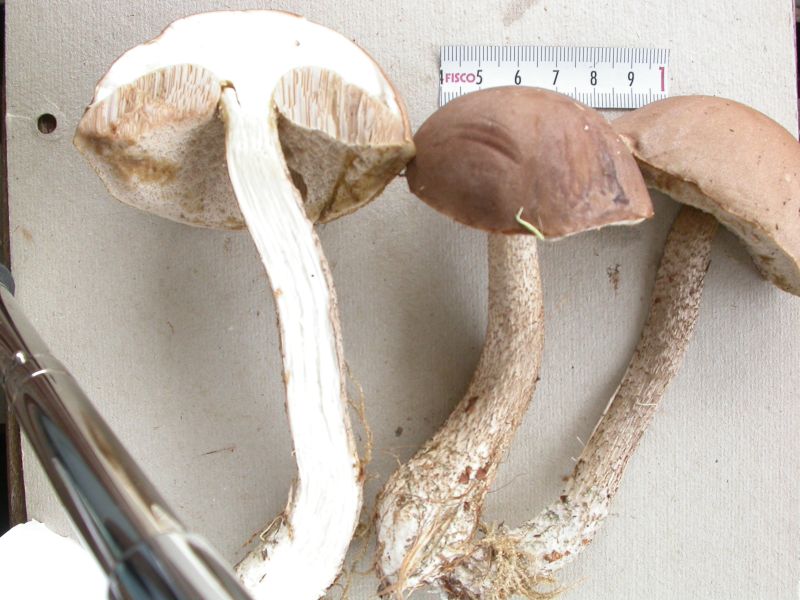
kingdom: Fungi
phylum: Basidiomycota
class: Agaricomycetes
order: Boletales
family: Boletaceae
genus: Leccinum
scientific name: Leccinum cyaneobasileucum
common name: almindelig skælrørhat
